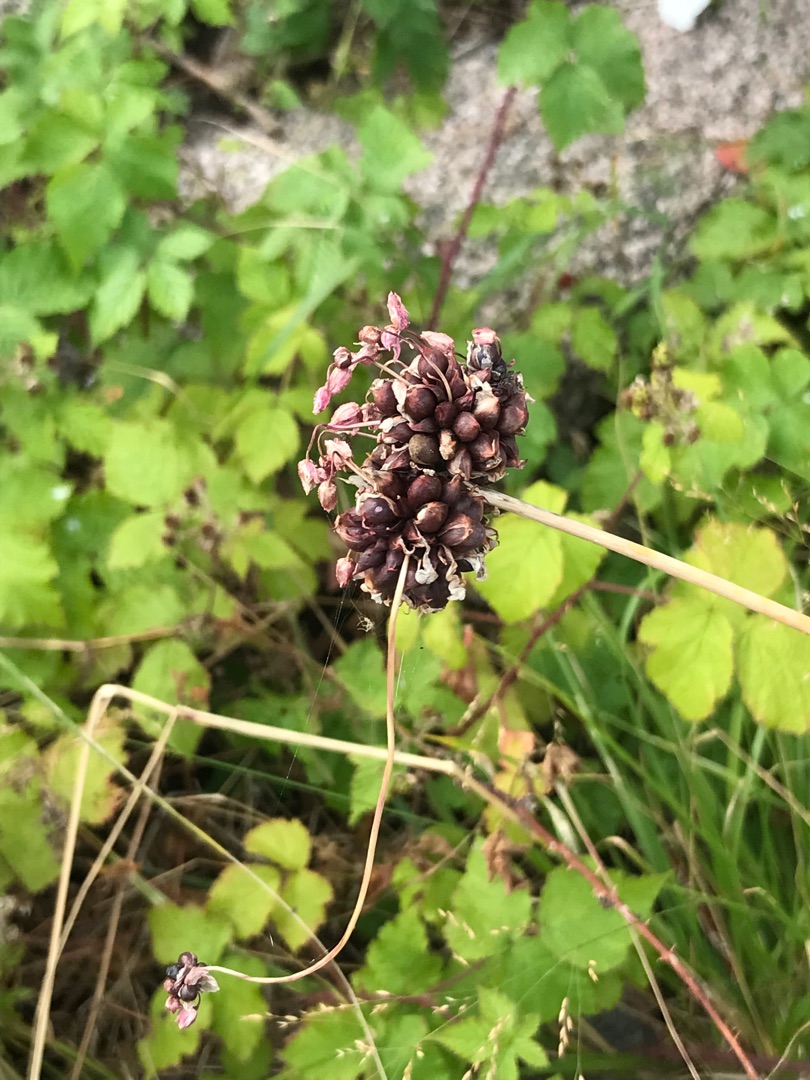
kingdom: Plantae
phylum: Tracheophyta
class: Liliopsida
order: Asparagales
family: Amaryllidaceae
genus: Allium
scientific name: Allium scorodoprasum
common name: Skov-løg
